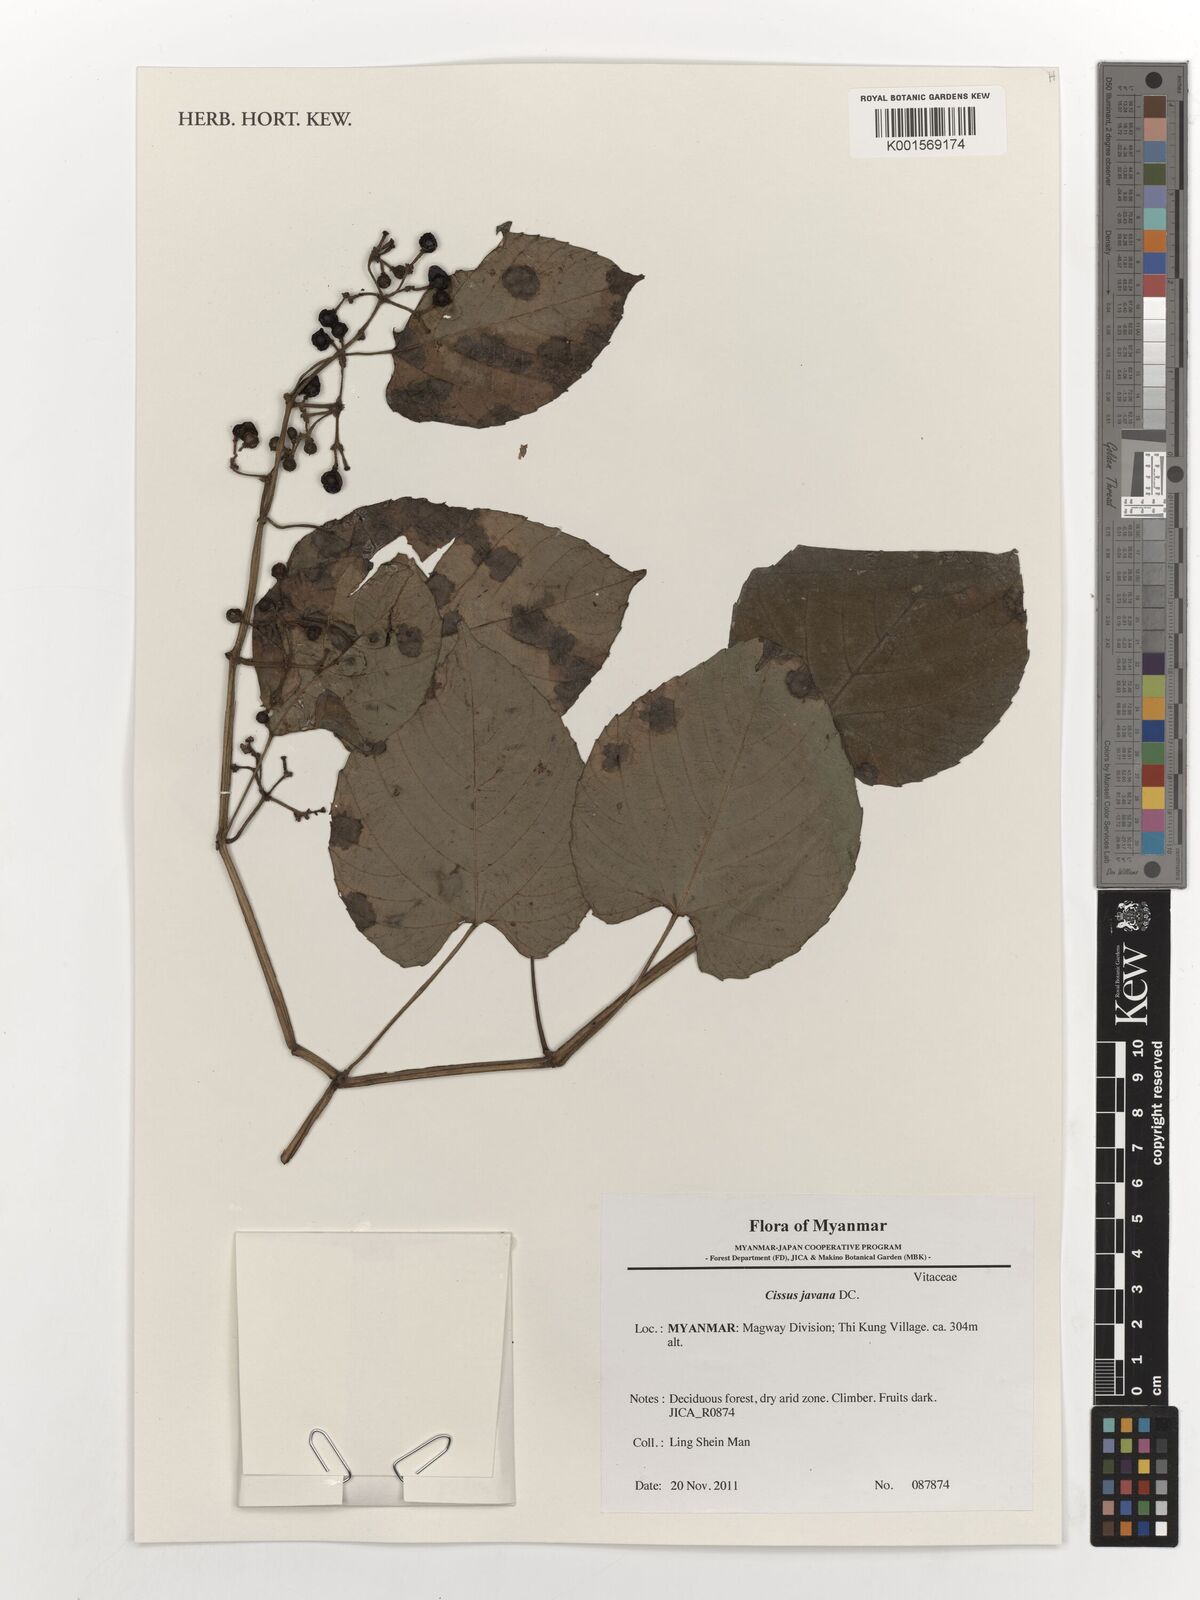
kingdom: Plantae
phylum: Tracheophyta
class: Magnoliopsida
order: Vitales
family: Vitaceae
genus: Cissus
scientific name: Cissus discolor
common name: Climbing-begonia
